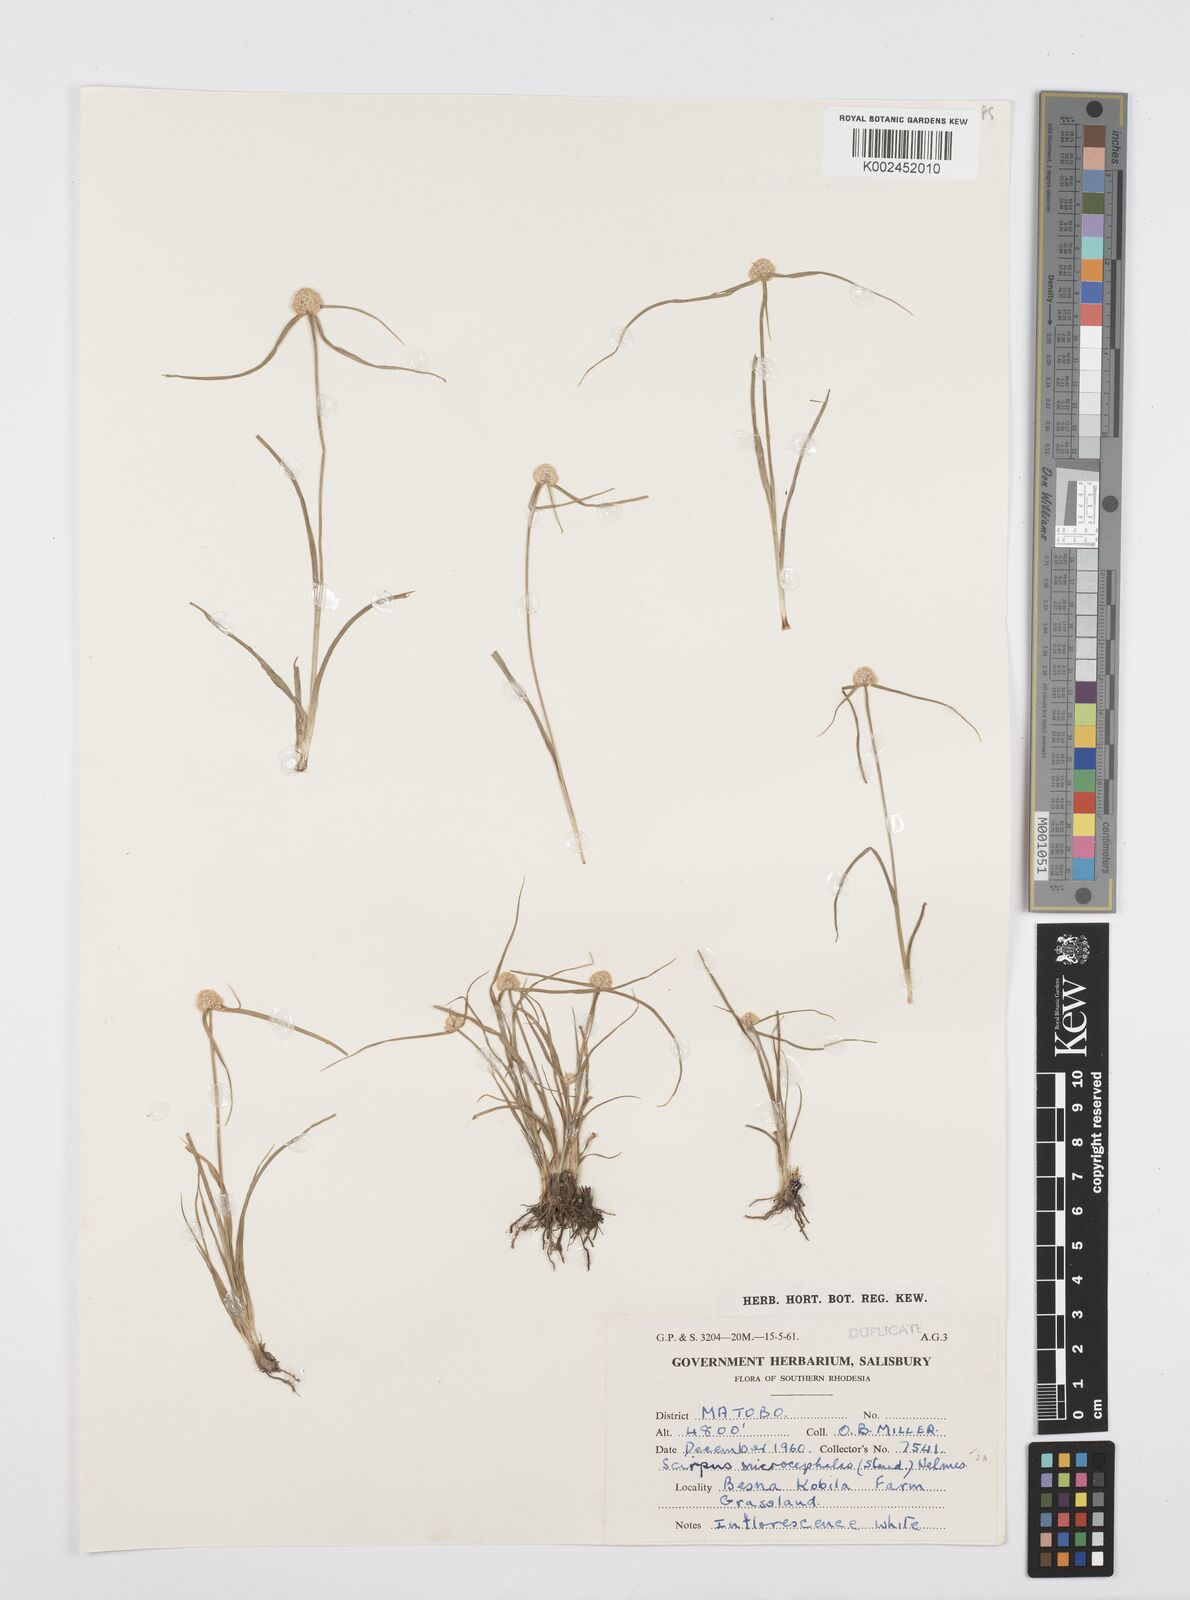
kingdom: Plantae
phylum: Tracheophyta
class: Liliopsida
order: Poales
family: Cyperaceae
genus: Cyperus
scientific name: Cyperus conglobatus
